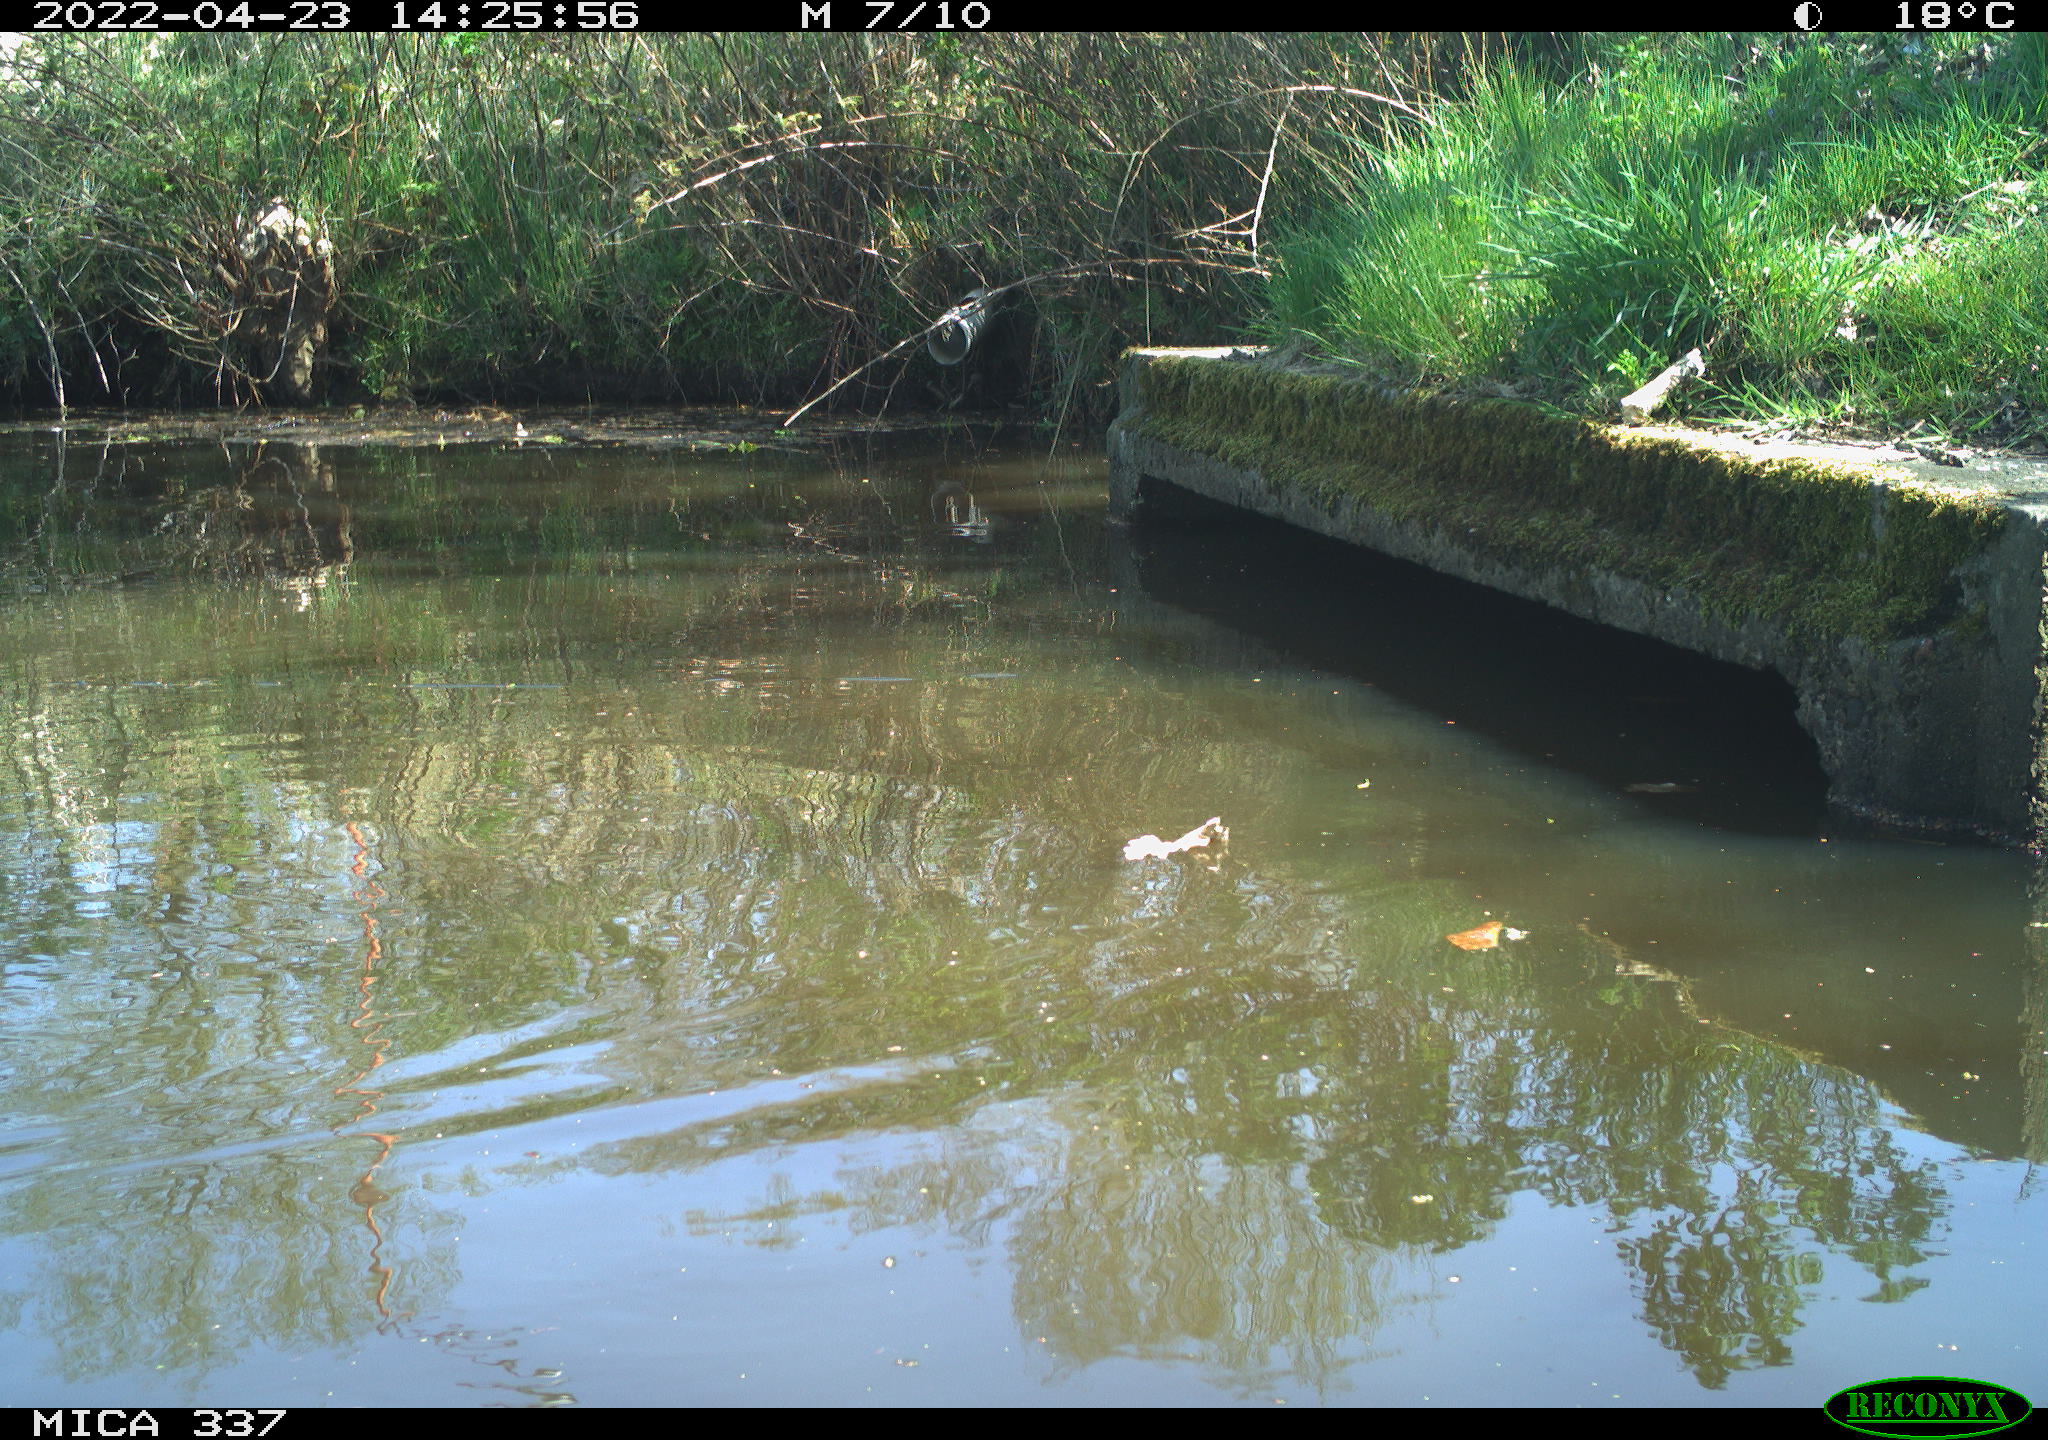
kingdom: Animalia
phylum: Chordata
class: Aves
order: Gruiformes
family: Rallidae
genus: Gallinula
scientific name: Gallinula chloropus
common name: Common moorhen
